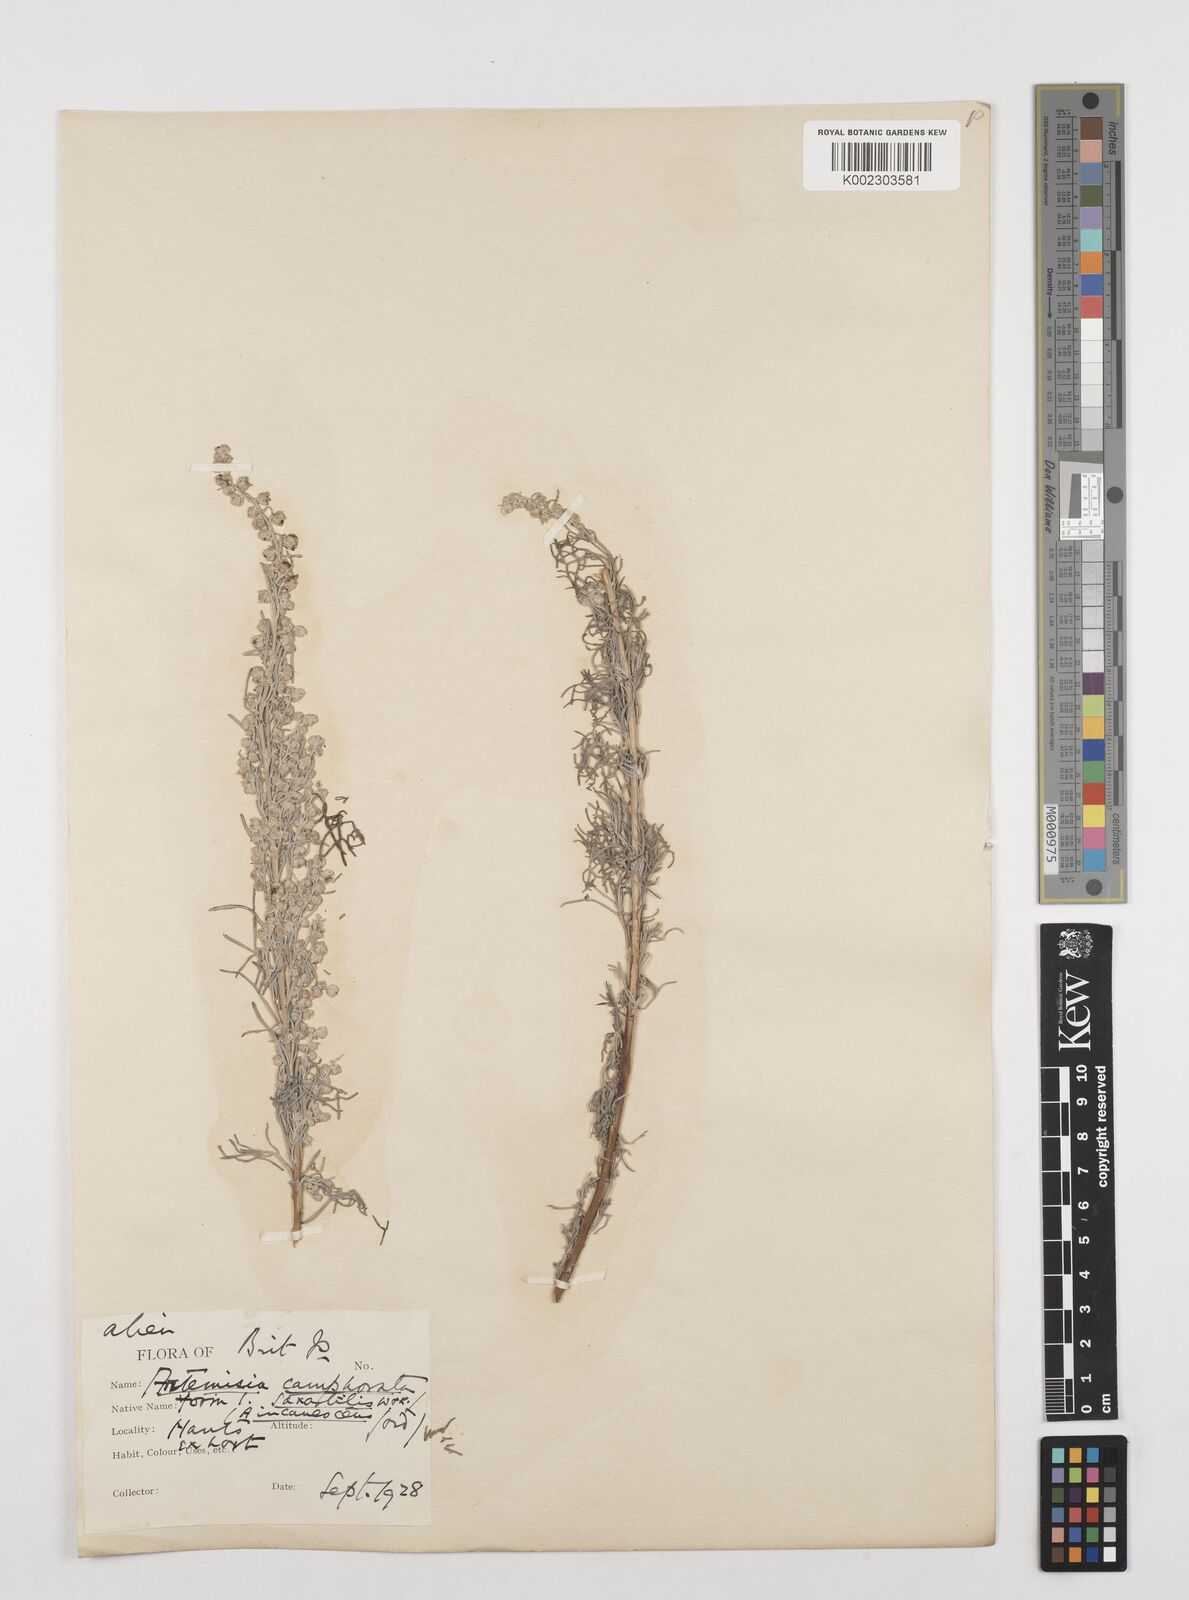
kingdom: Plantae
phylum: Tracheophyta
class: Magnoliopsida
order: Asterales
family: Asteraceae
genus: Artemisia
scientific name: Artemisia alba
